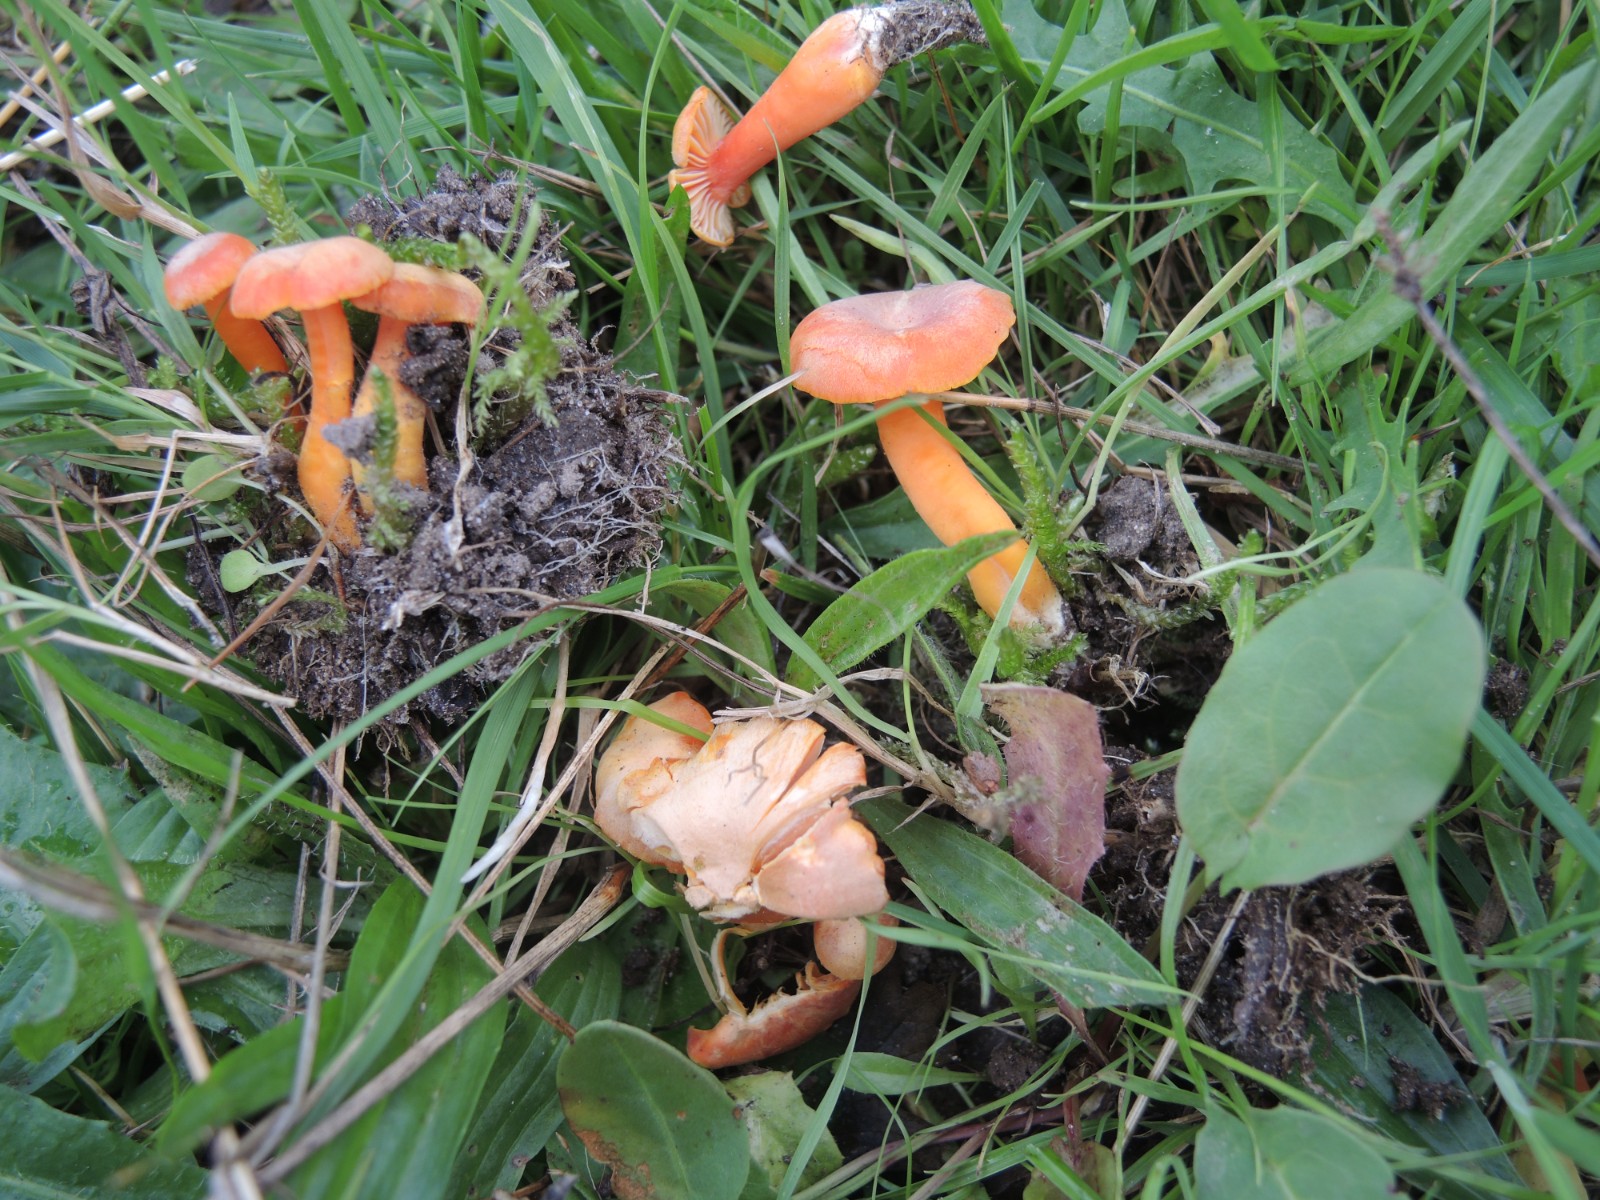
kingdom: Fungi
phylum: Basidiomycota
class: Agaricomycetes
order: Agaricales
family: Hygrophoraceae
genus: Hygrocybe
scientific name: Hygrocybe reidii
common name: honning-vokshat
